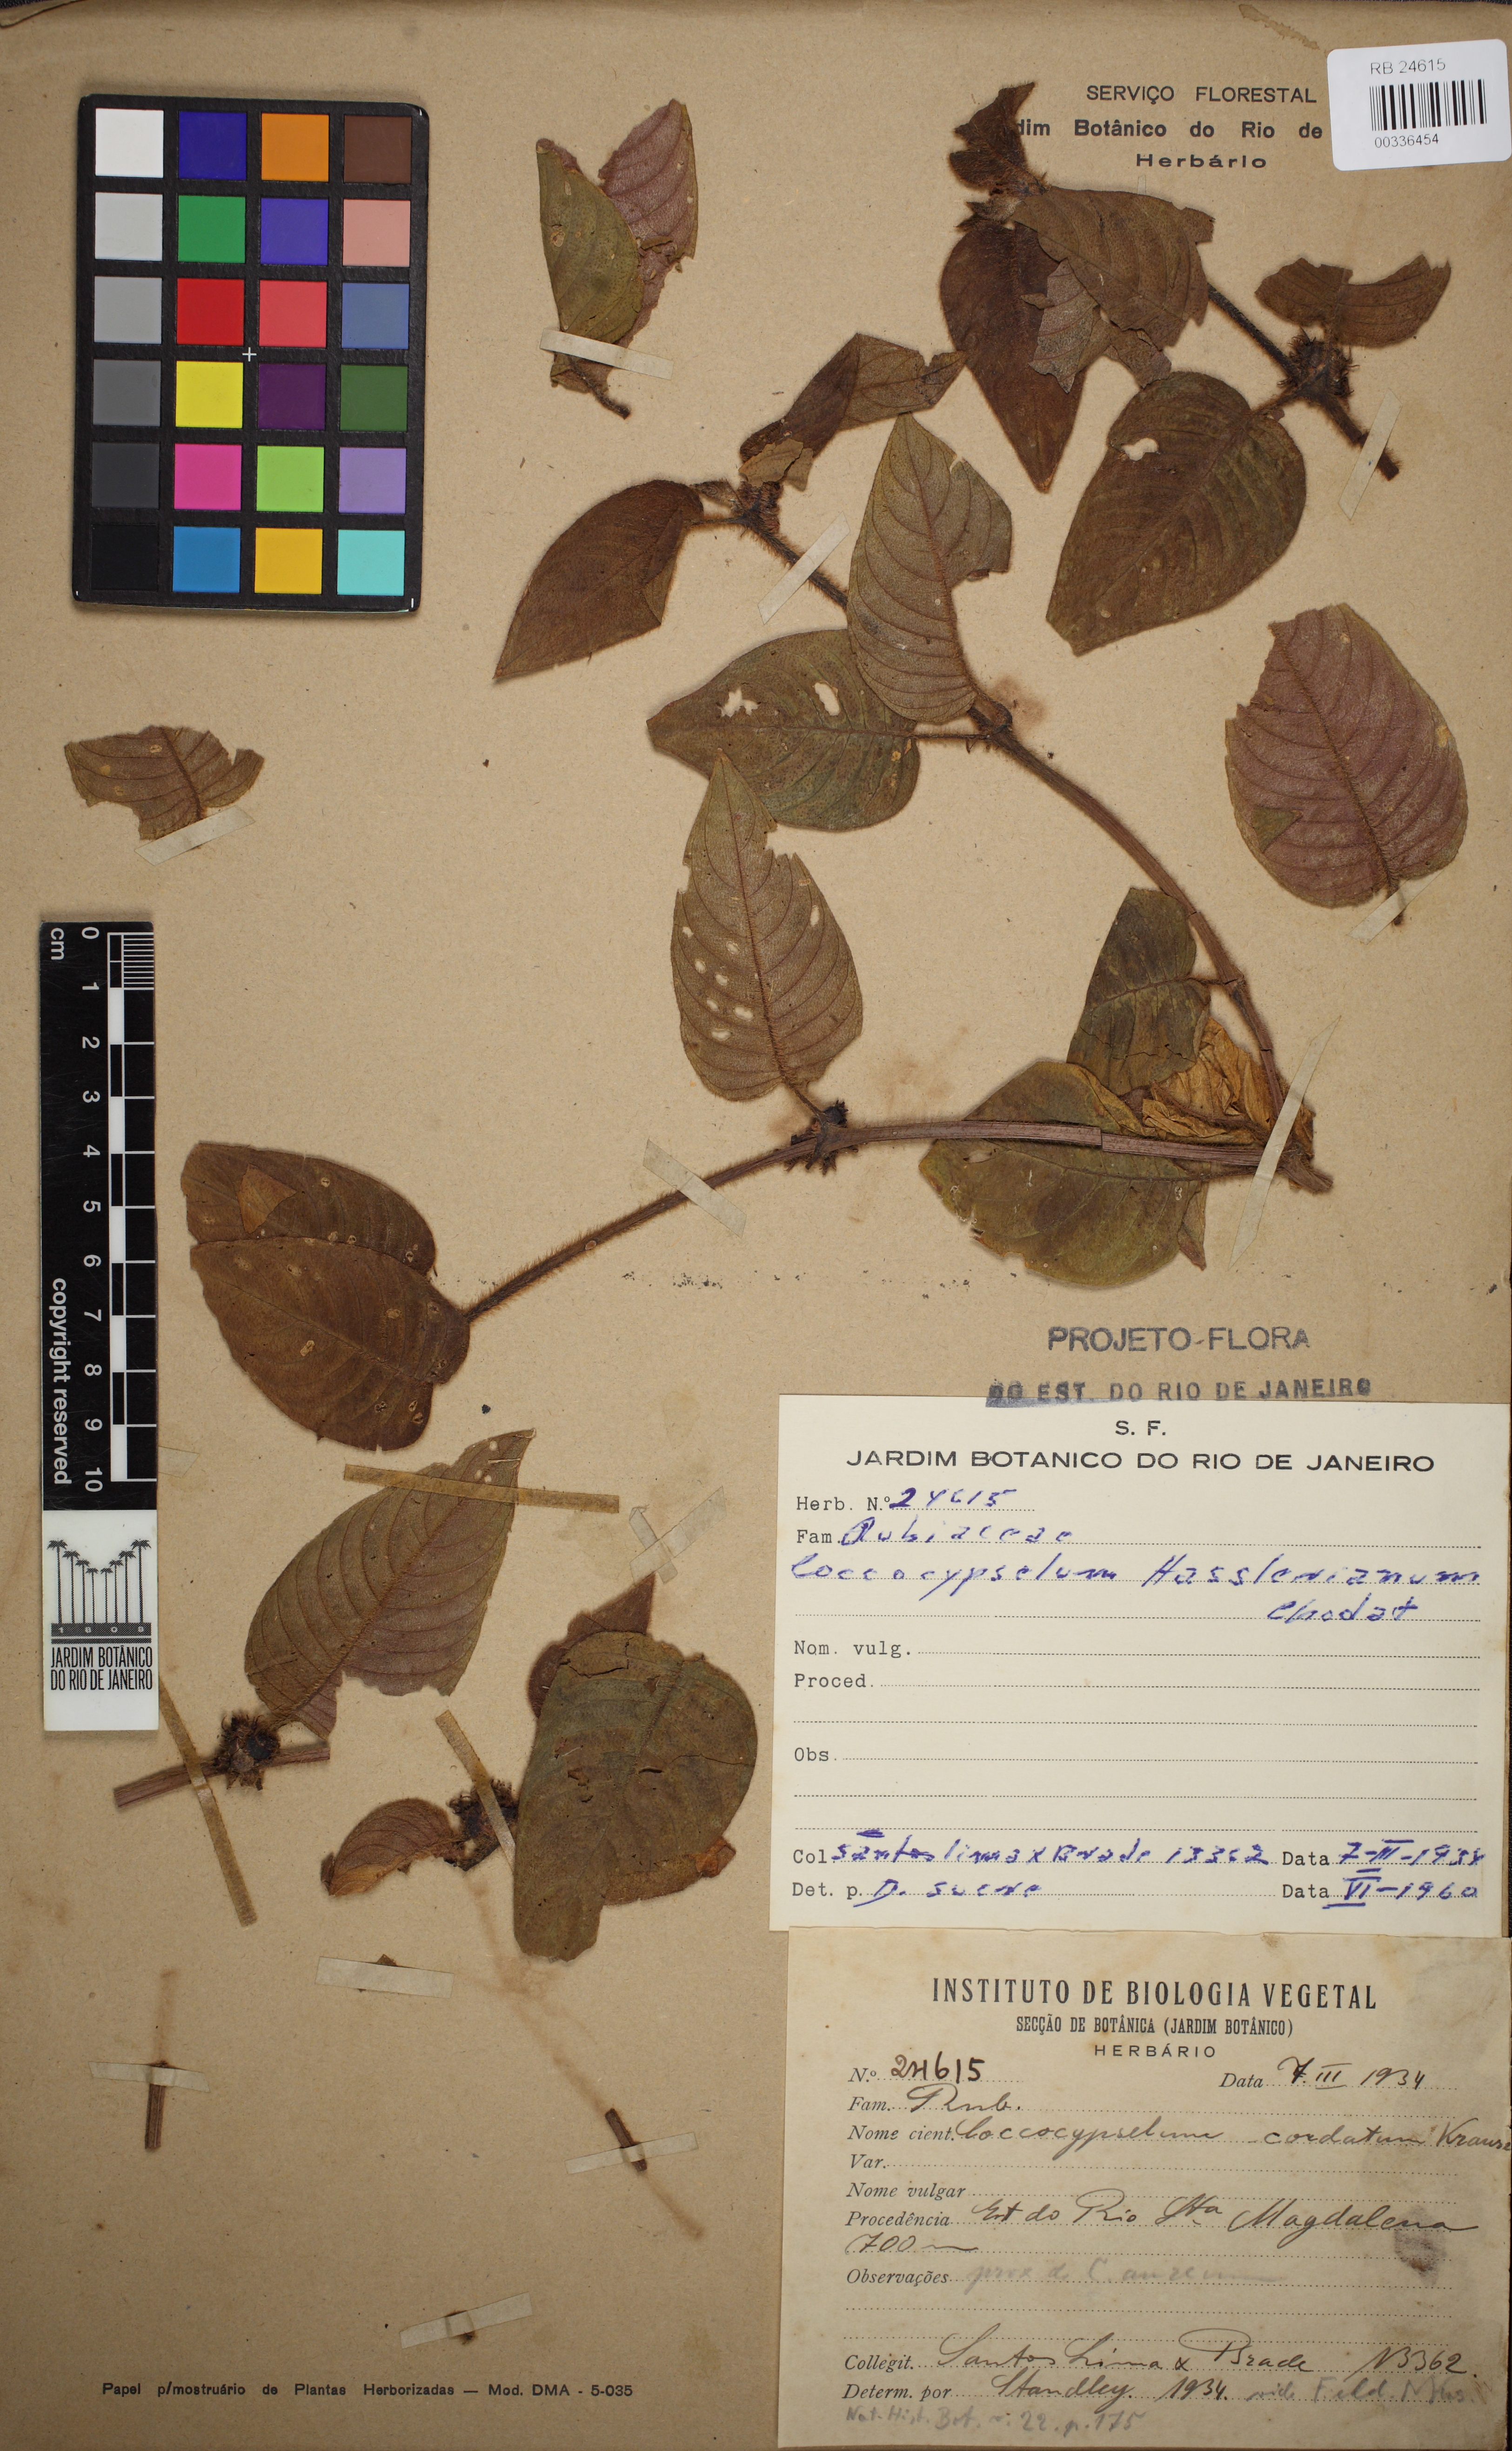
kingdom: Plantae
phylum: Tracheophyta
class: Magnoliopsida
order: Gentianales
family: Rubiaceae
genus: Coccocypselum
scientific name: Coccocypselum hasslerianum
